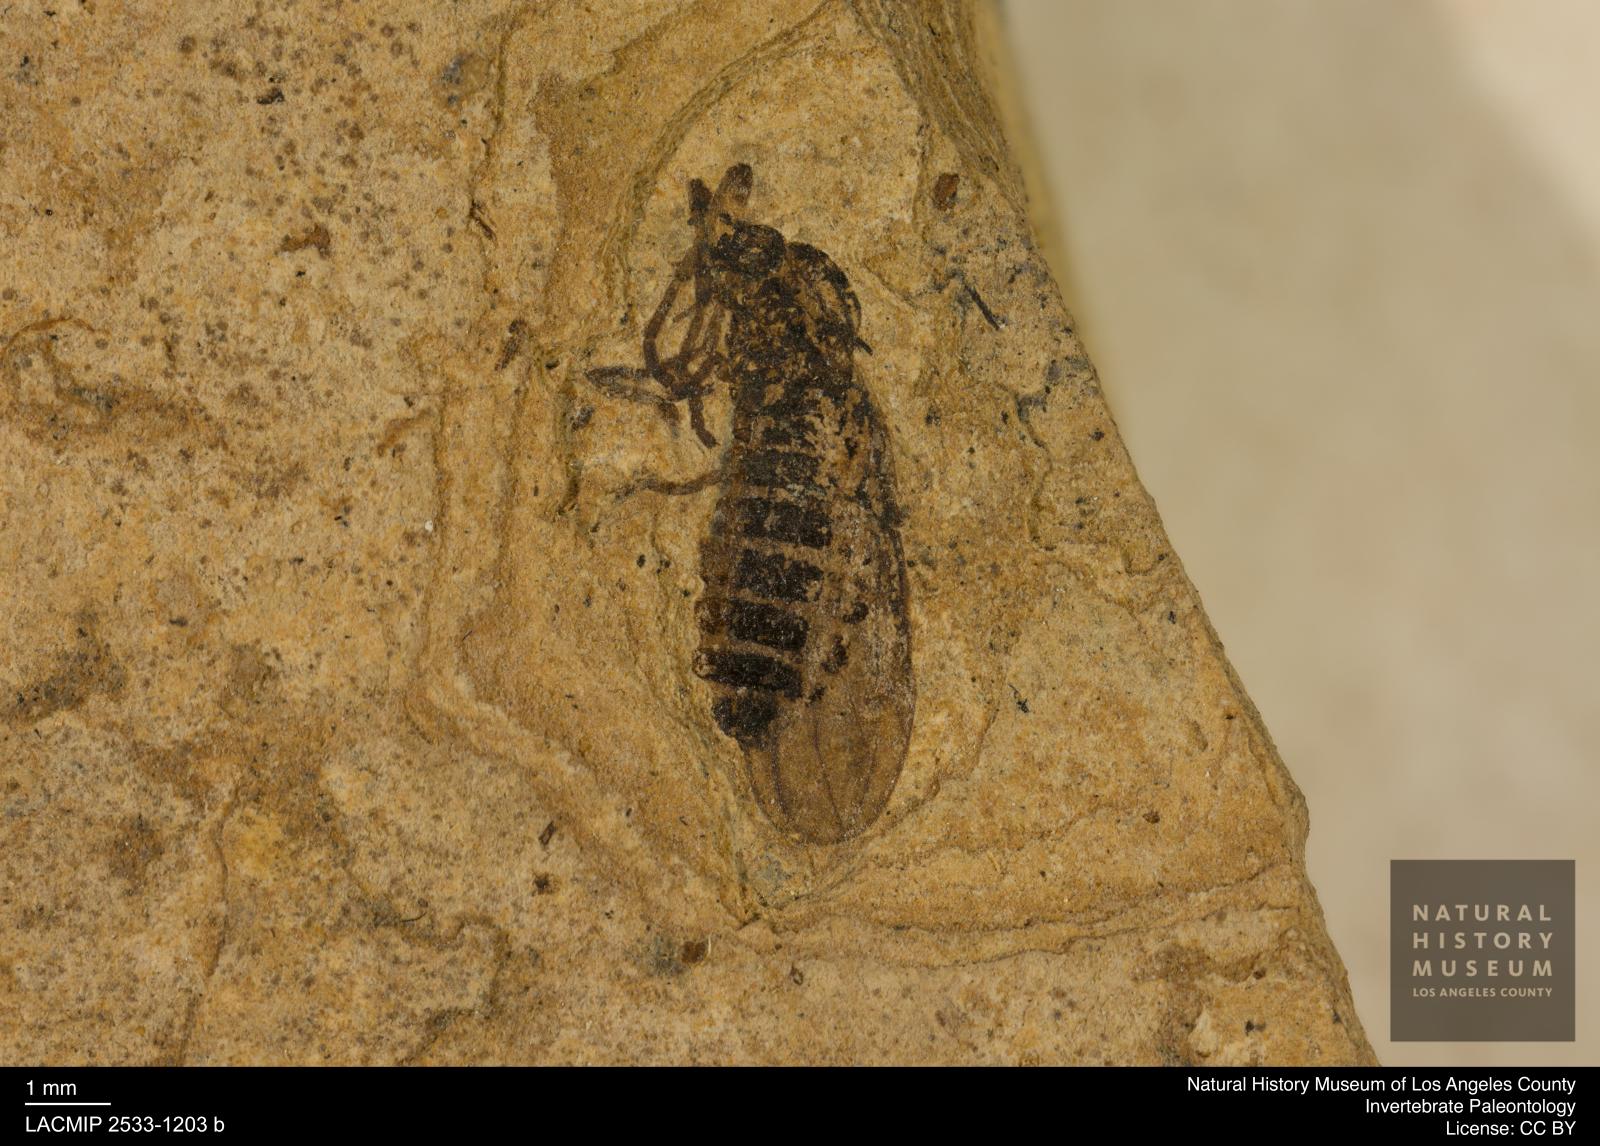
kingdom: Animalia
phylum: Arthropoda
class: Insecta
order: Diptera
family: Bibionidae
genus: Plecia
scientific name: Plecia stygia
